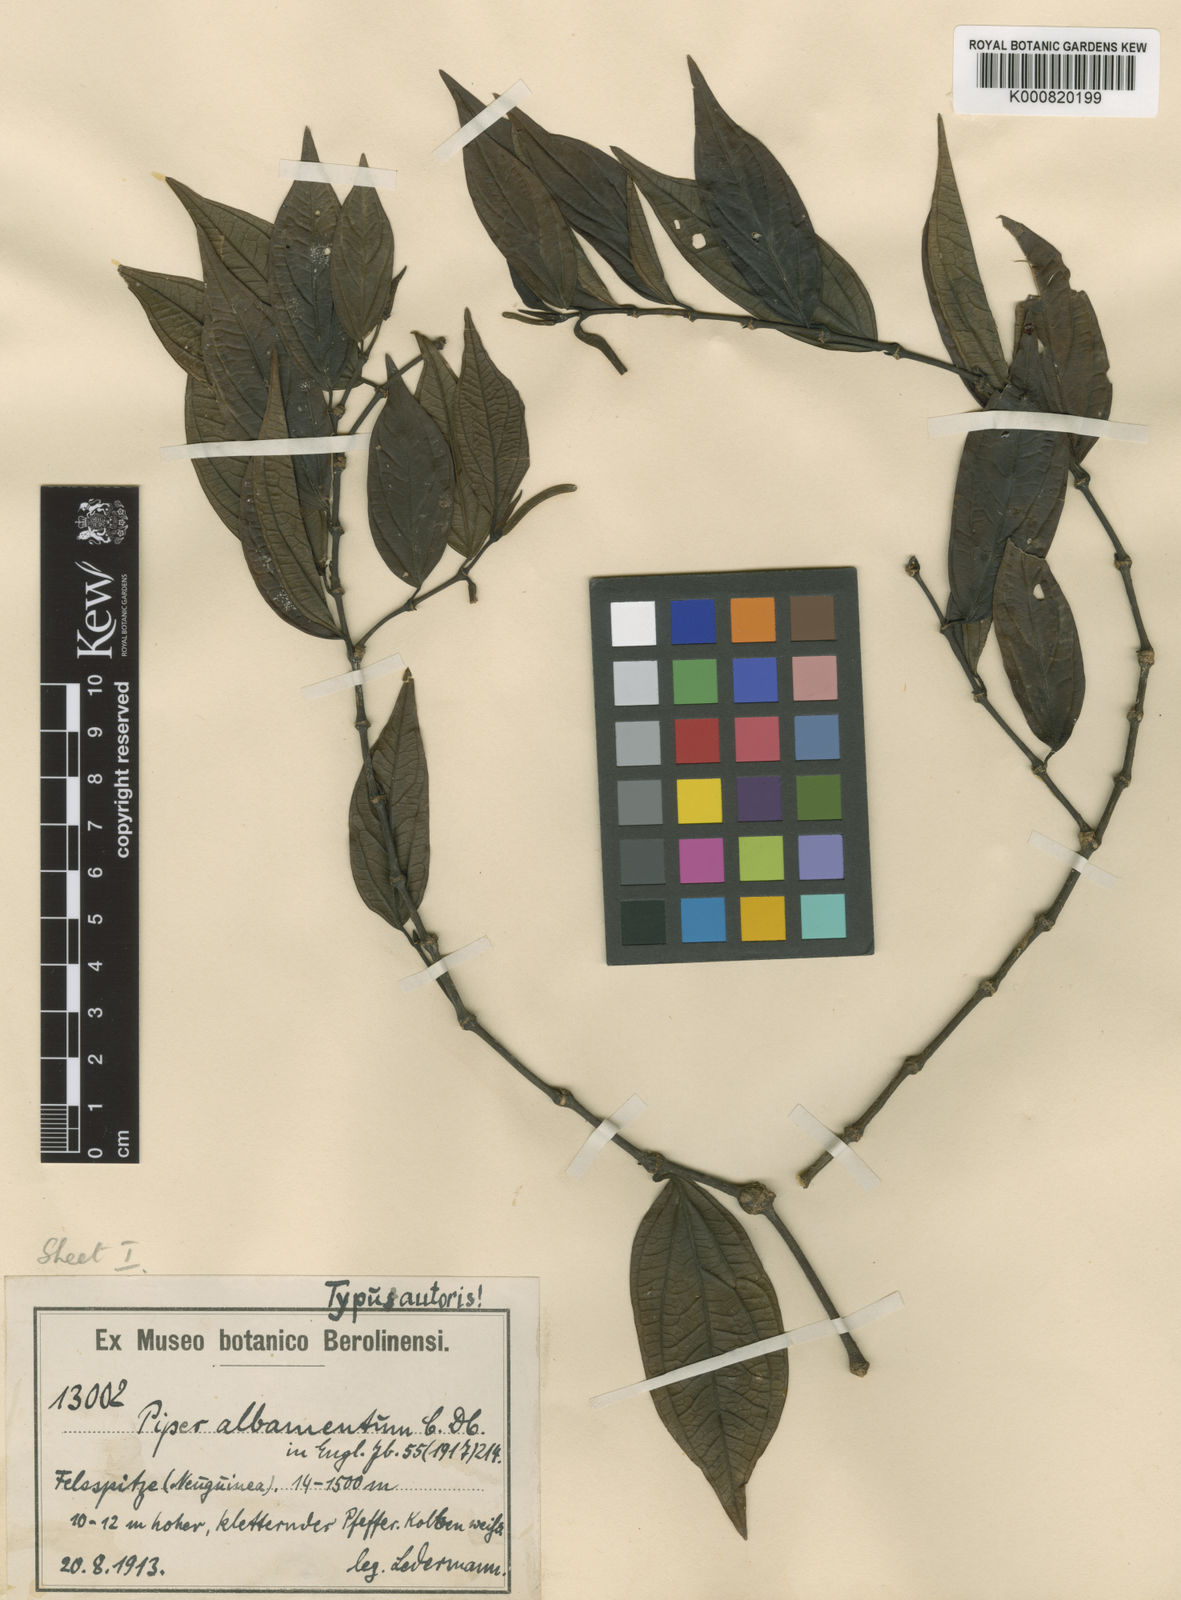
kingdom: Plantae
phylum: Tracheophyta
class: Magnoliopsida
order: Piperales
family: Piperaceae
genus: Piper
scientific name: Piper albamentum
